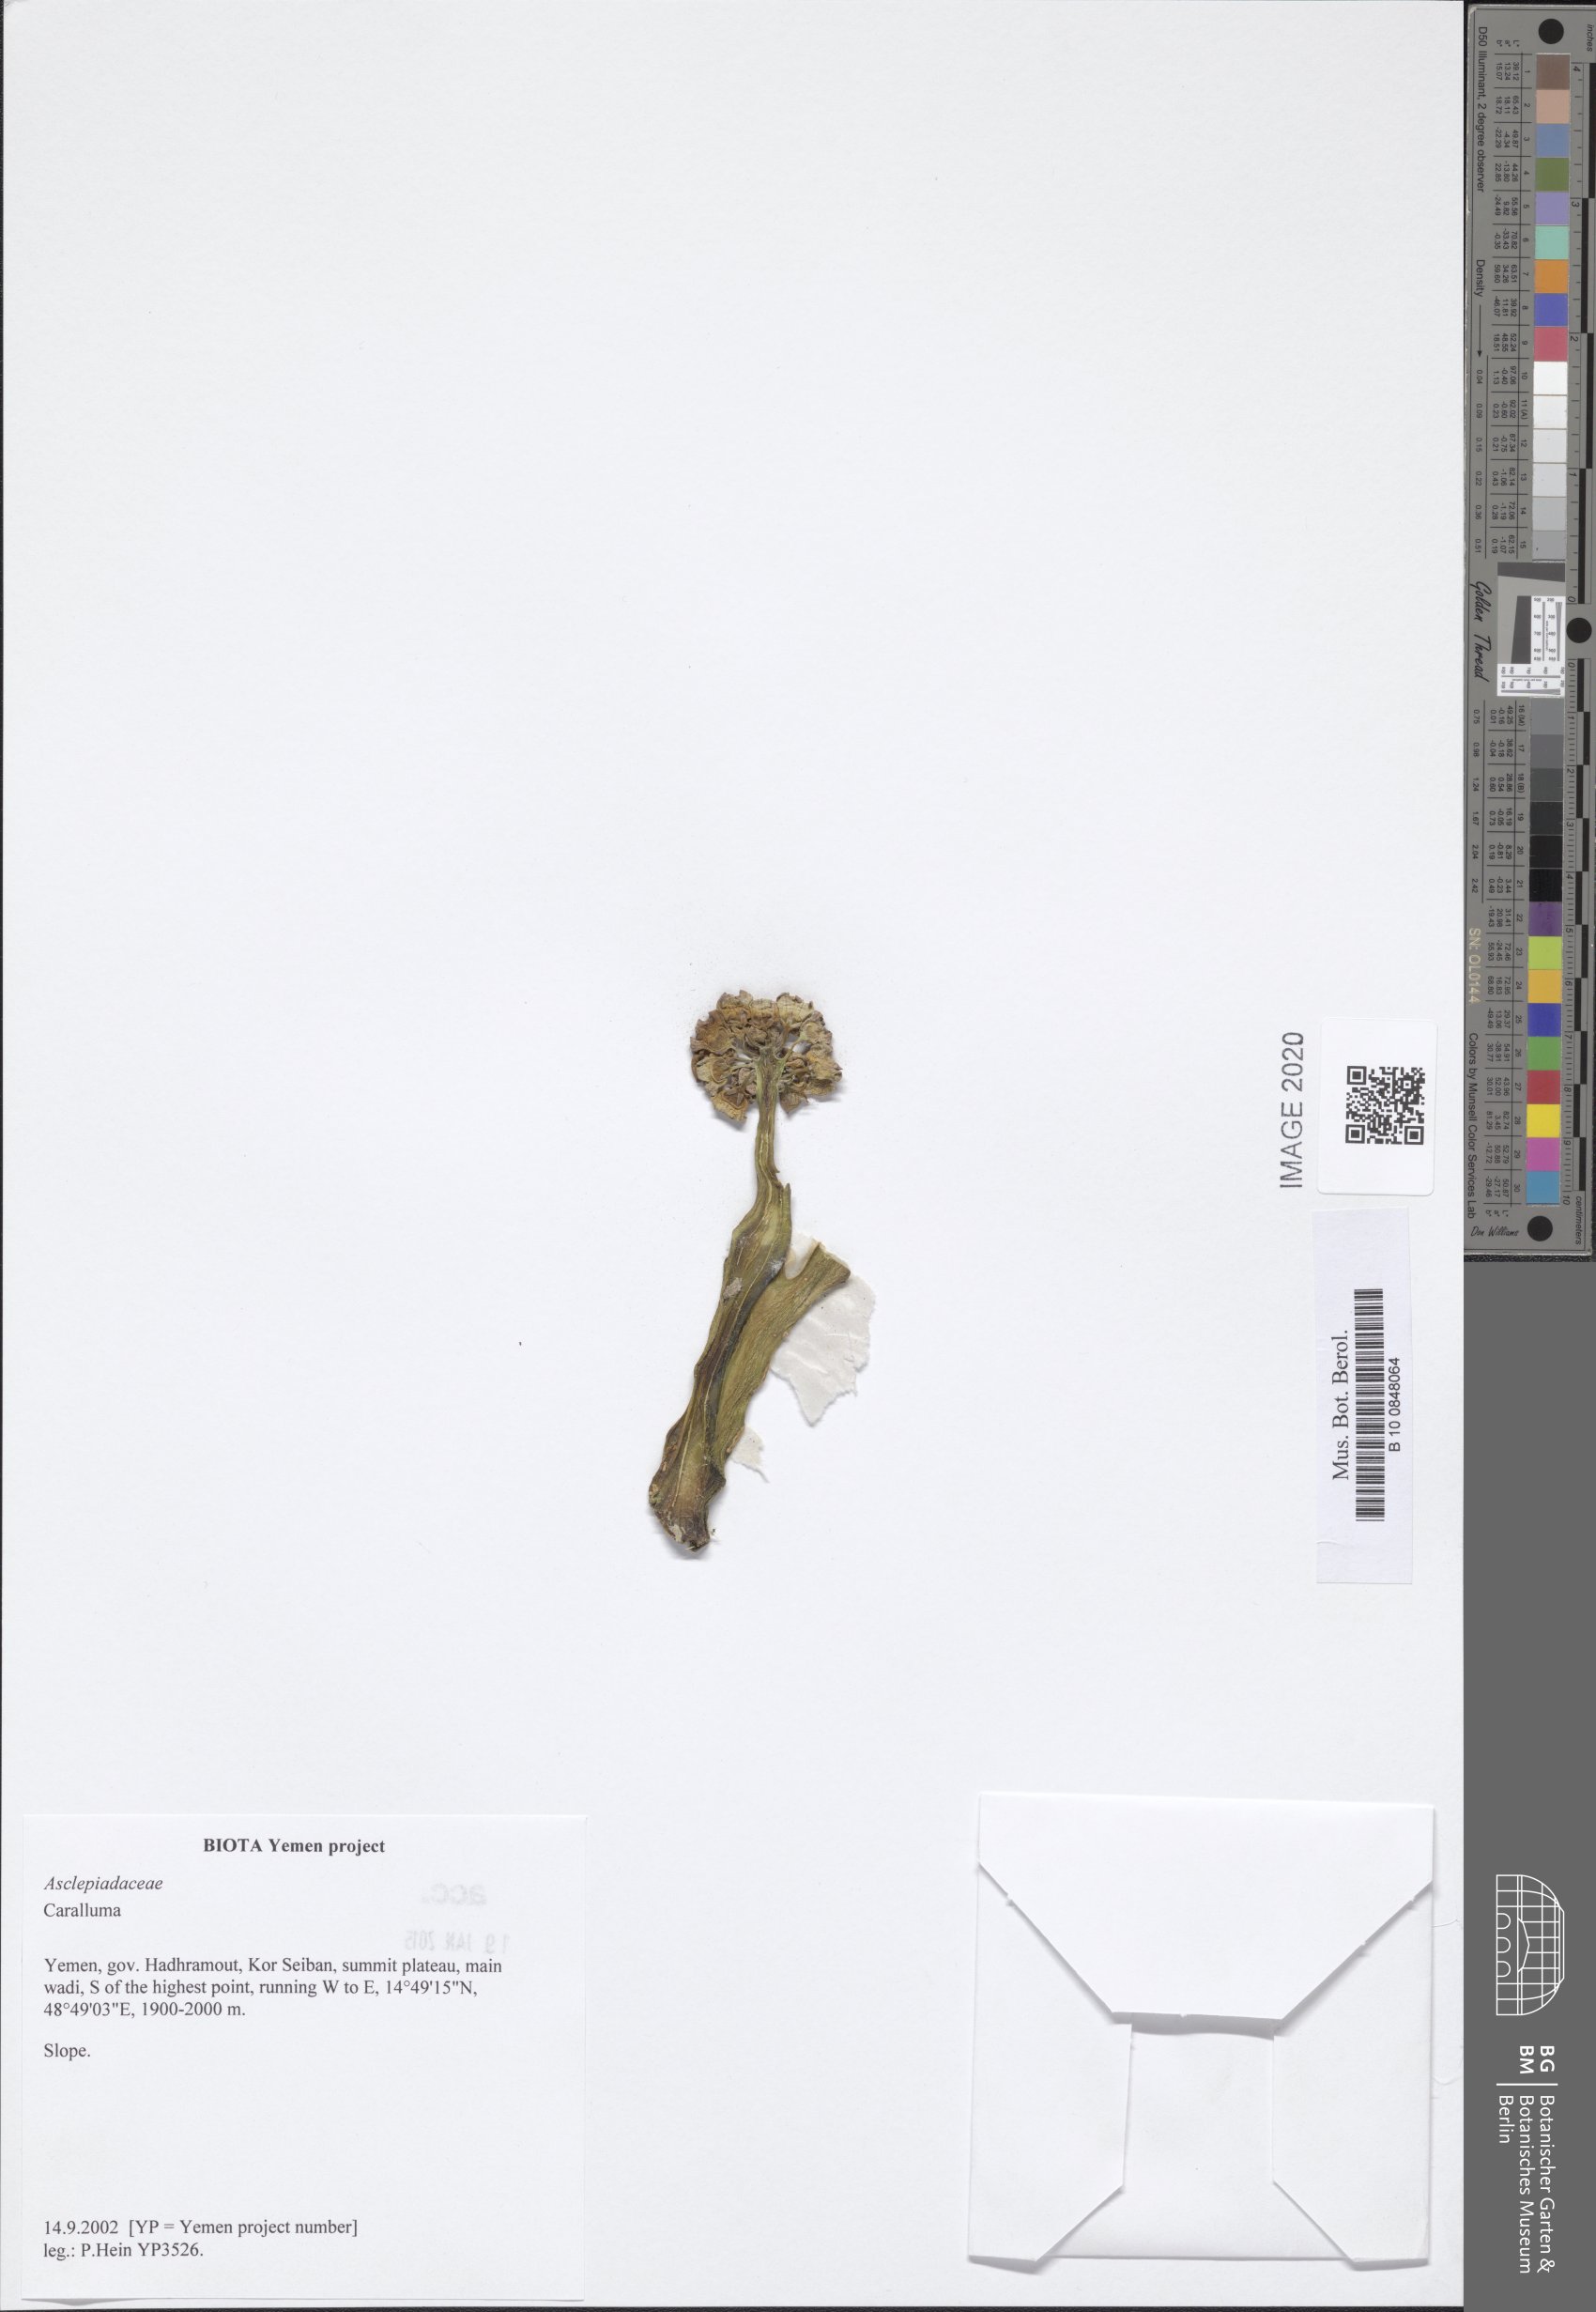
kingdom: Plantae
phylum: Tracheophyta
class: Magnoliopsida
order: Gentianales
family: Apocynaceae
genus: Ceropegia
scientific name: Ceropegia adenensis
